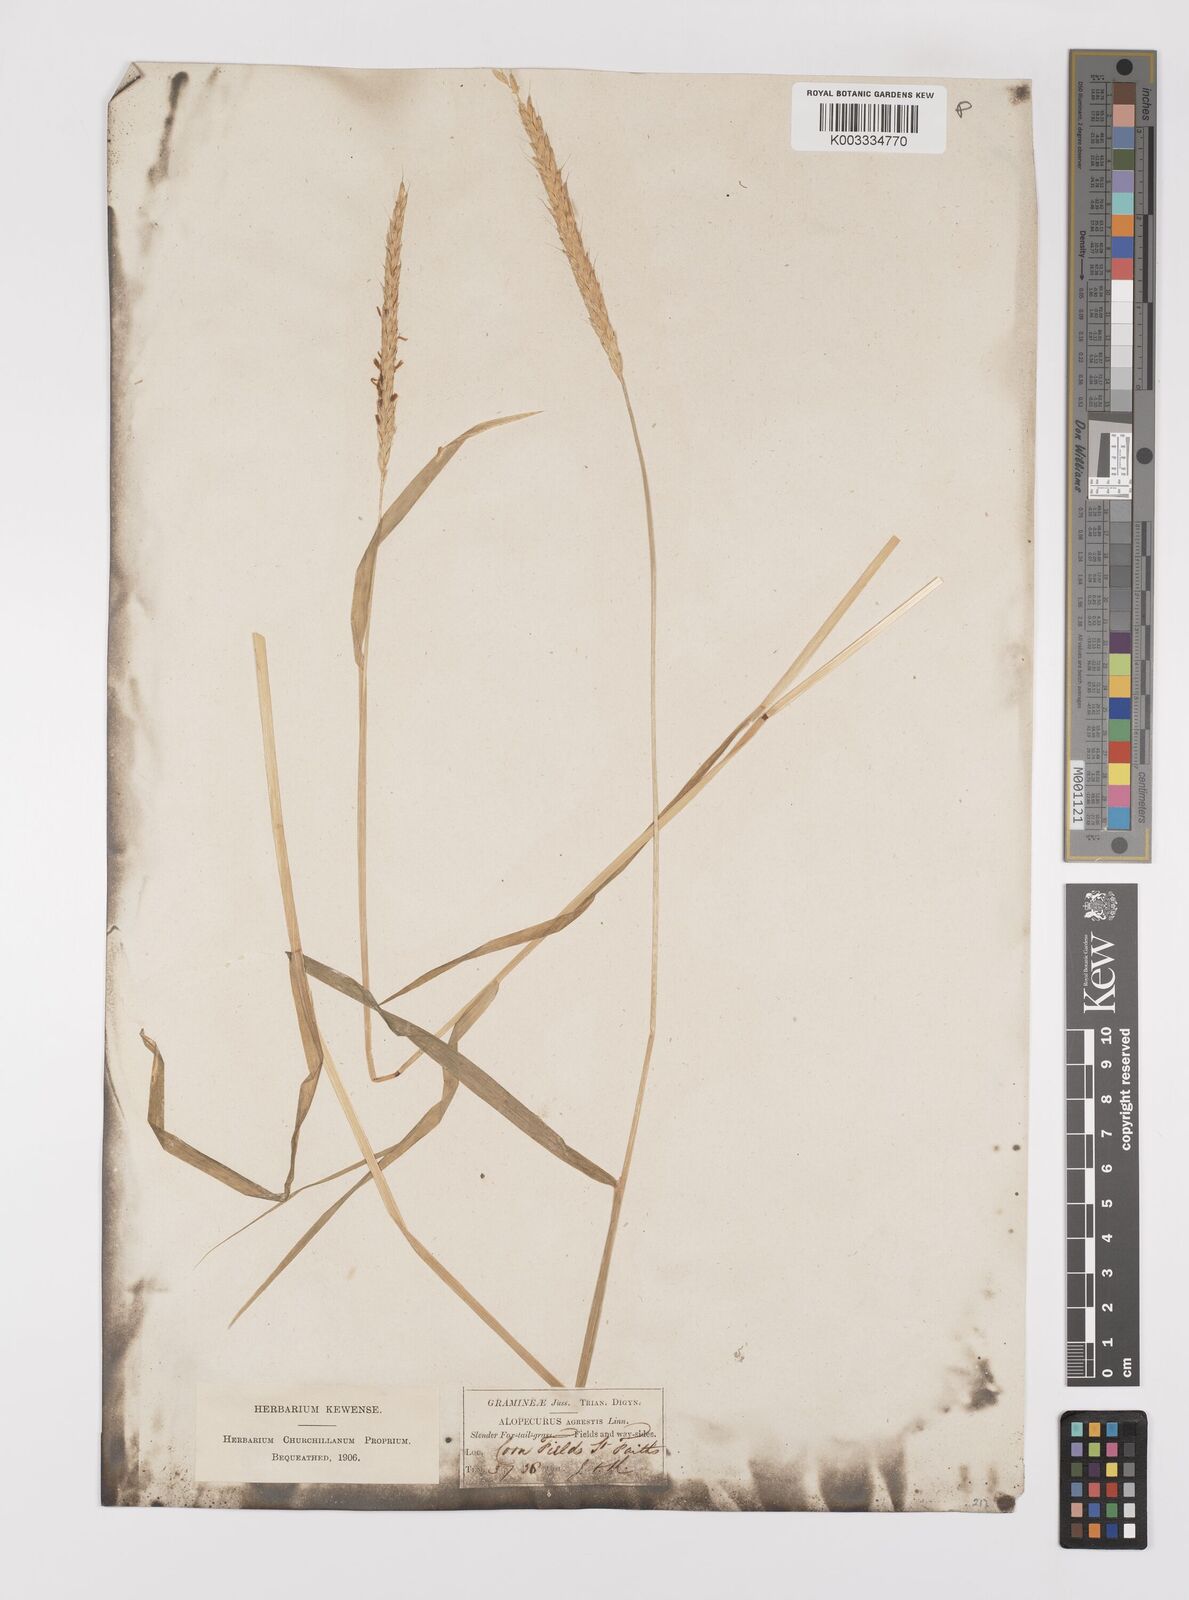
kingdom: Plantae
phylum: Tracheophyta
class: Liliopsida
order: Poales
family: Poaceae
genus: Alopecurus
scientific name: Alopecurus myosuroides
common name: Black-grass
